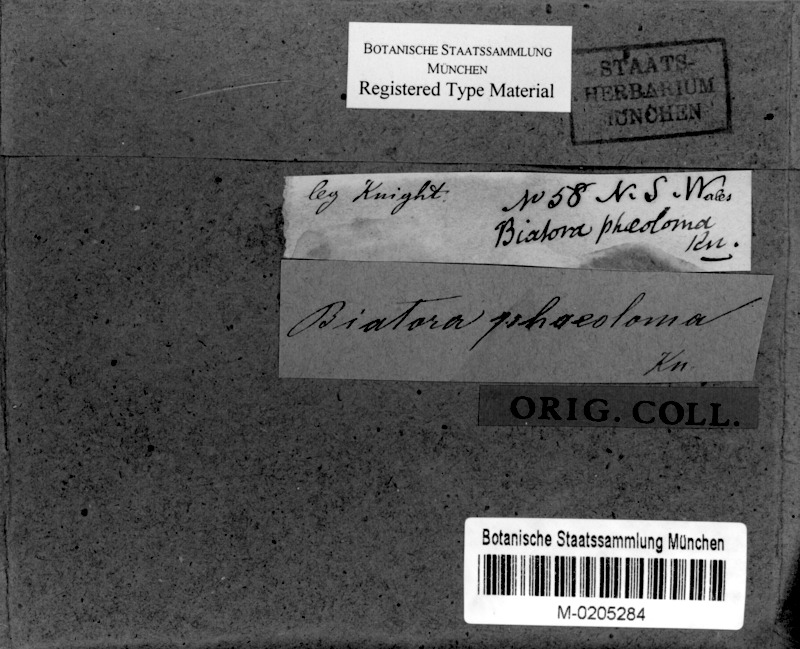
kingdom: Fungi
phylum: Ascomycota
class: Lecanoromycetes
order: Lecanorales
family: Catillariaceae
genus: Catillaria
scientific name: Catillaria phaeoloma
